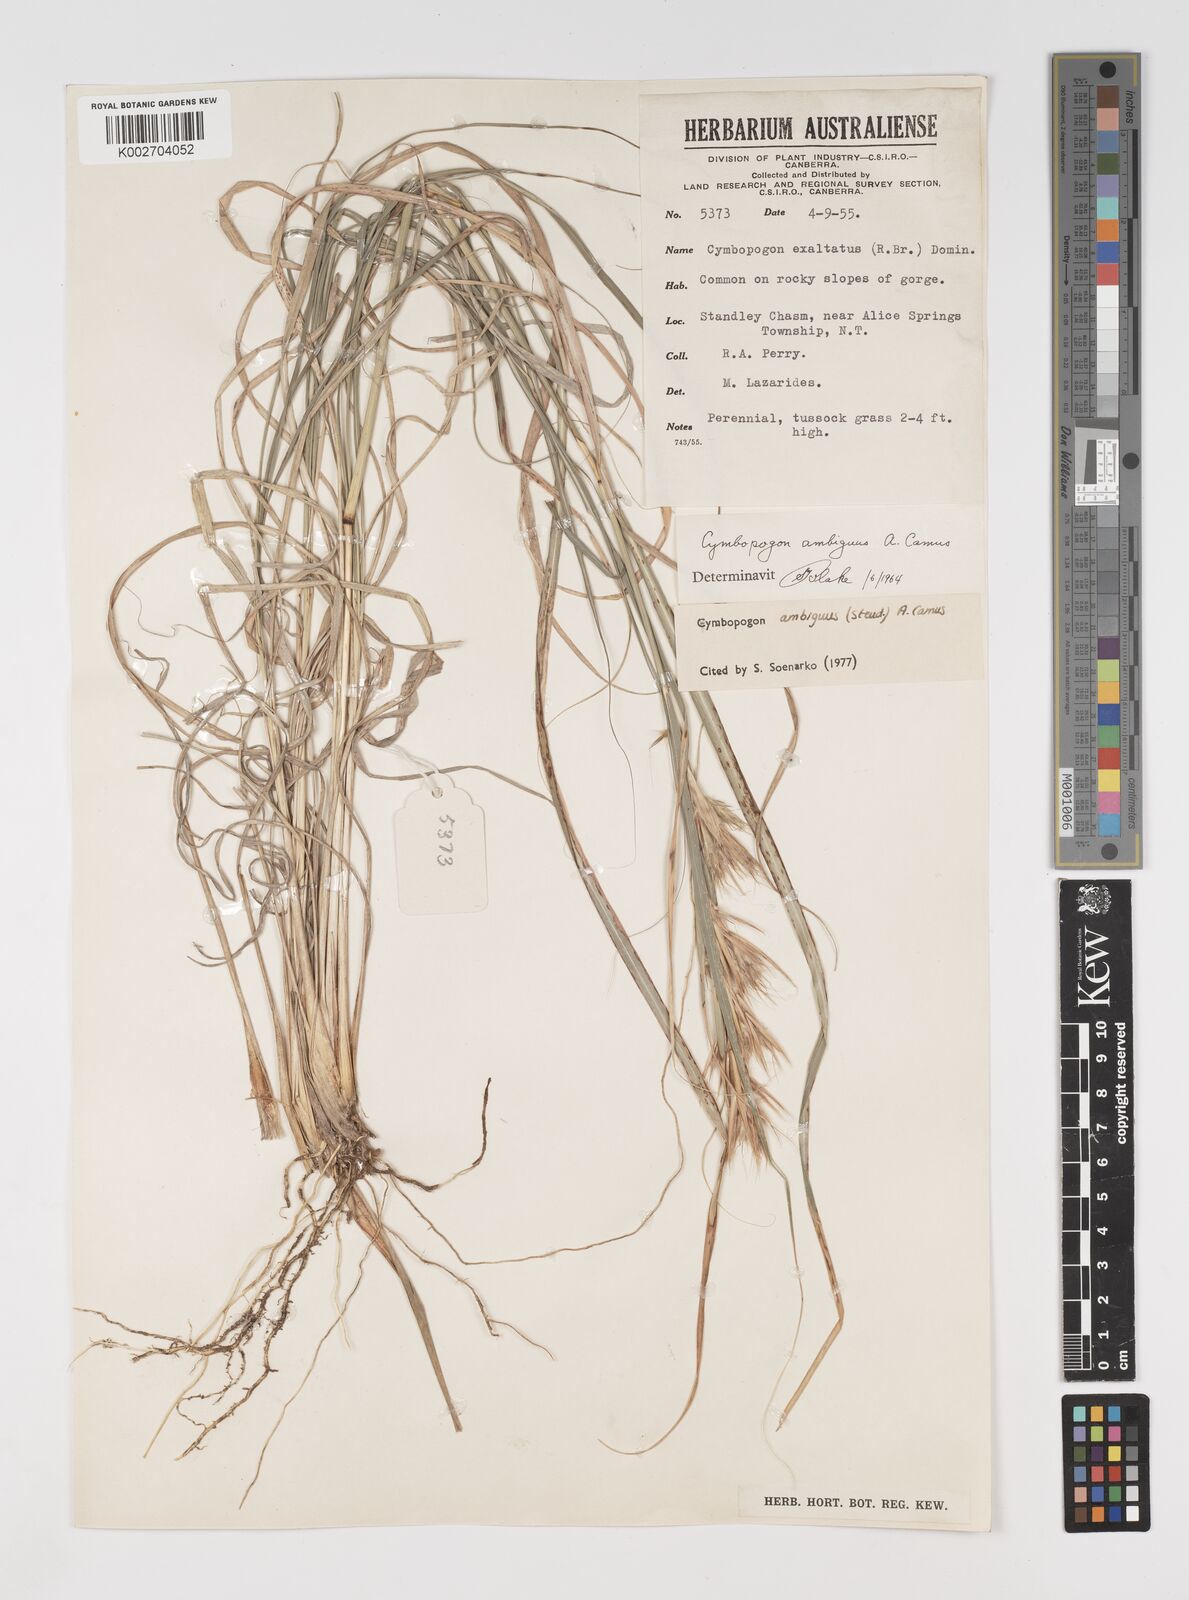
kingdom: Plantae
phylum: Tracheophyta
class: Liliopsida
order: Poales
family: Poaceae
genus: Cymbopogon
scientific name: Cymbopogon ambiguus
